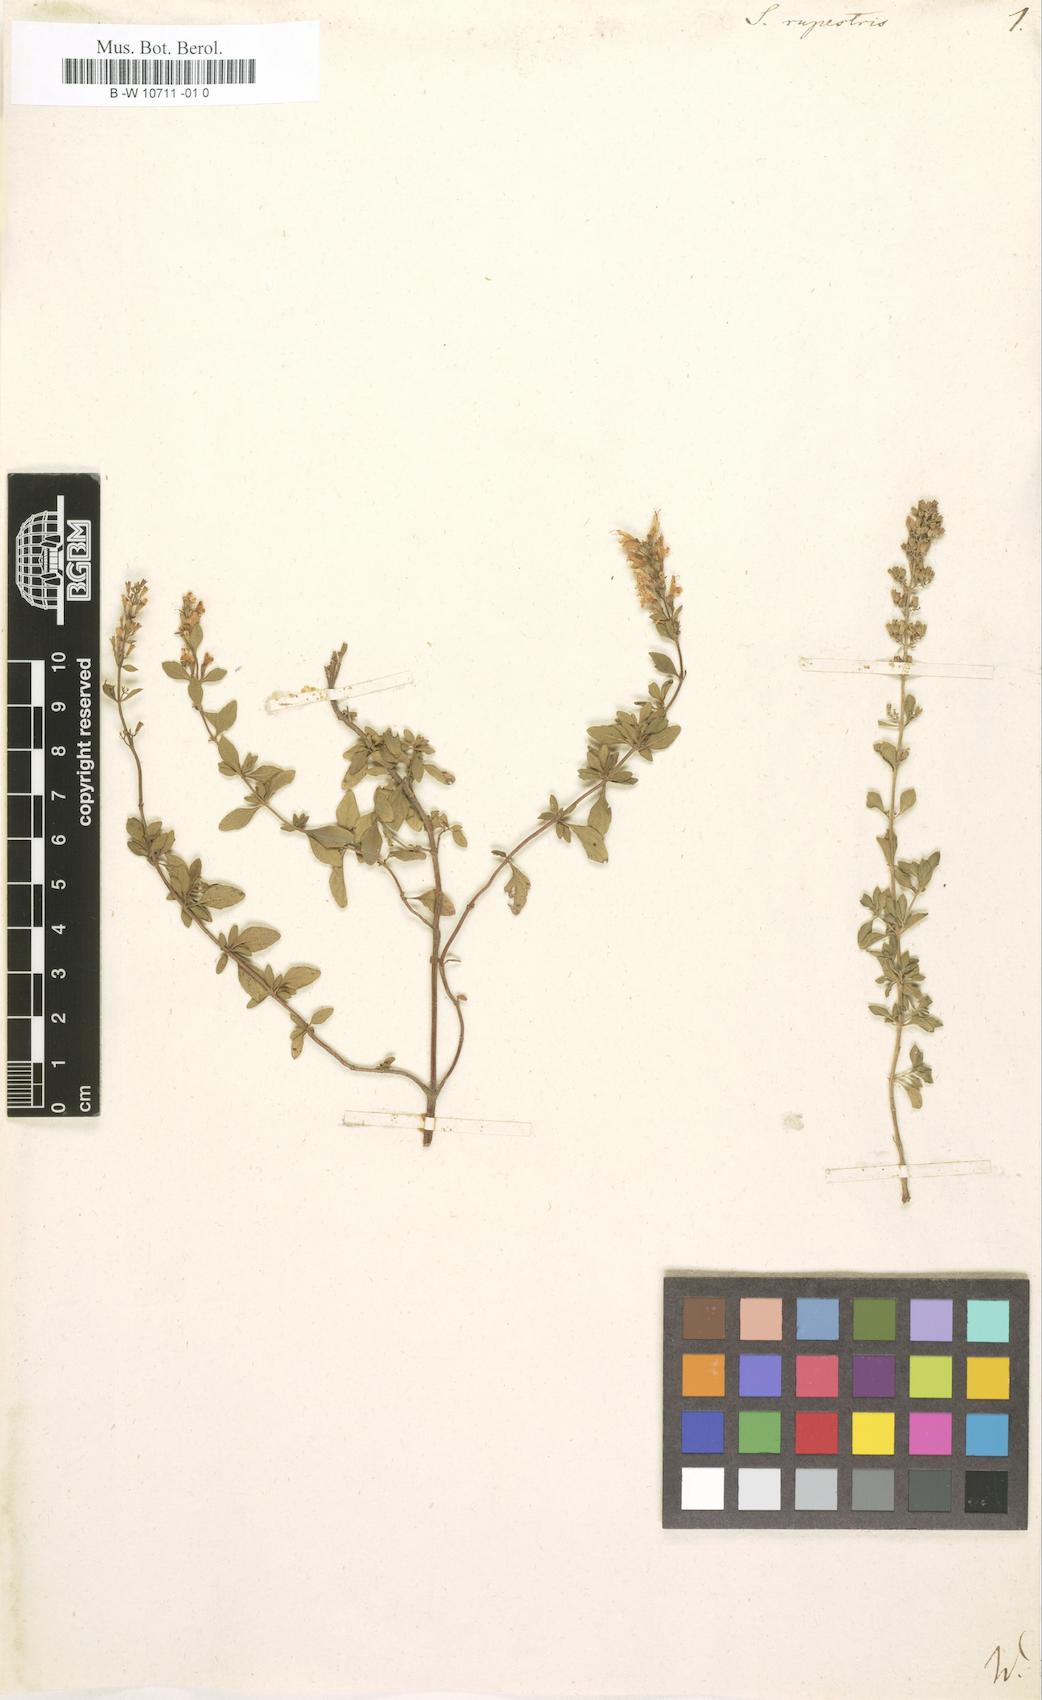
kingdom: Plantae
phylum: Tracheophyta
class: Magnoliopsida
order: Lamiales
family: Lamiaceae
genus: Clinopodium
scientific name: Clinopodium album
